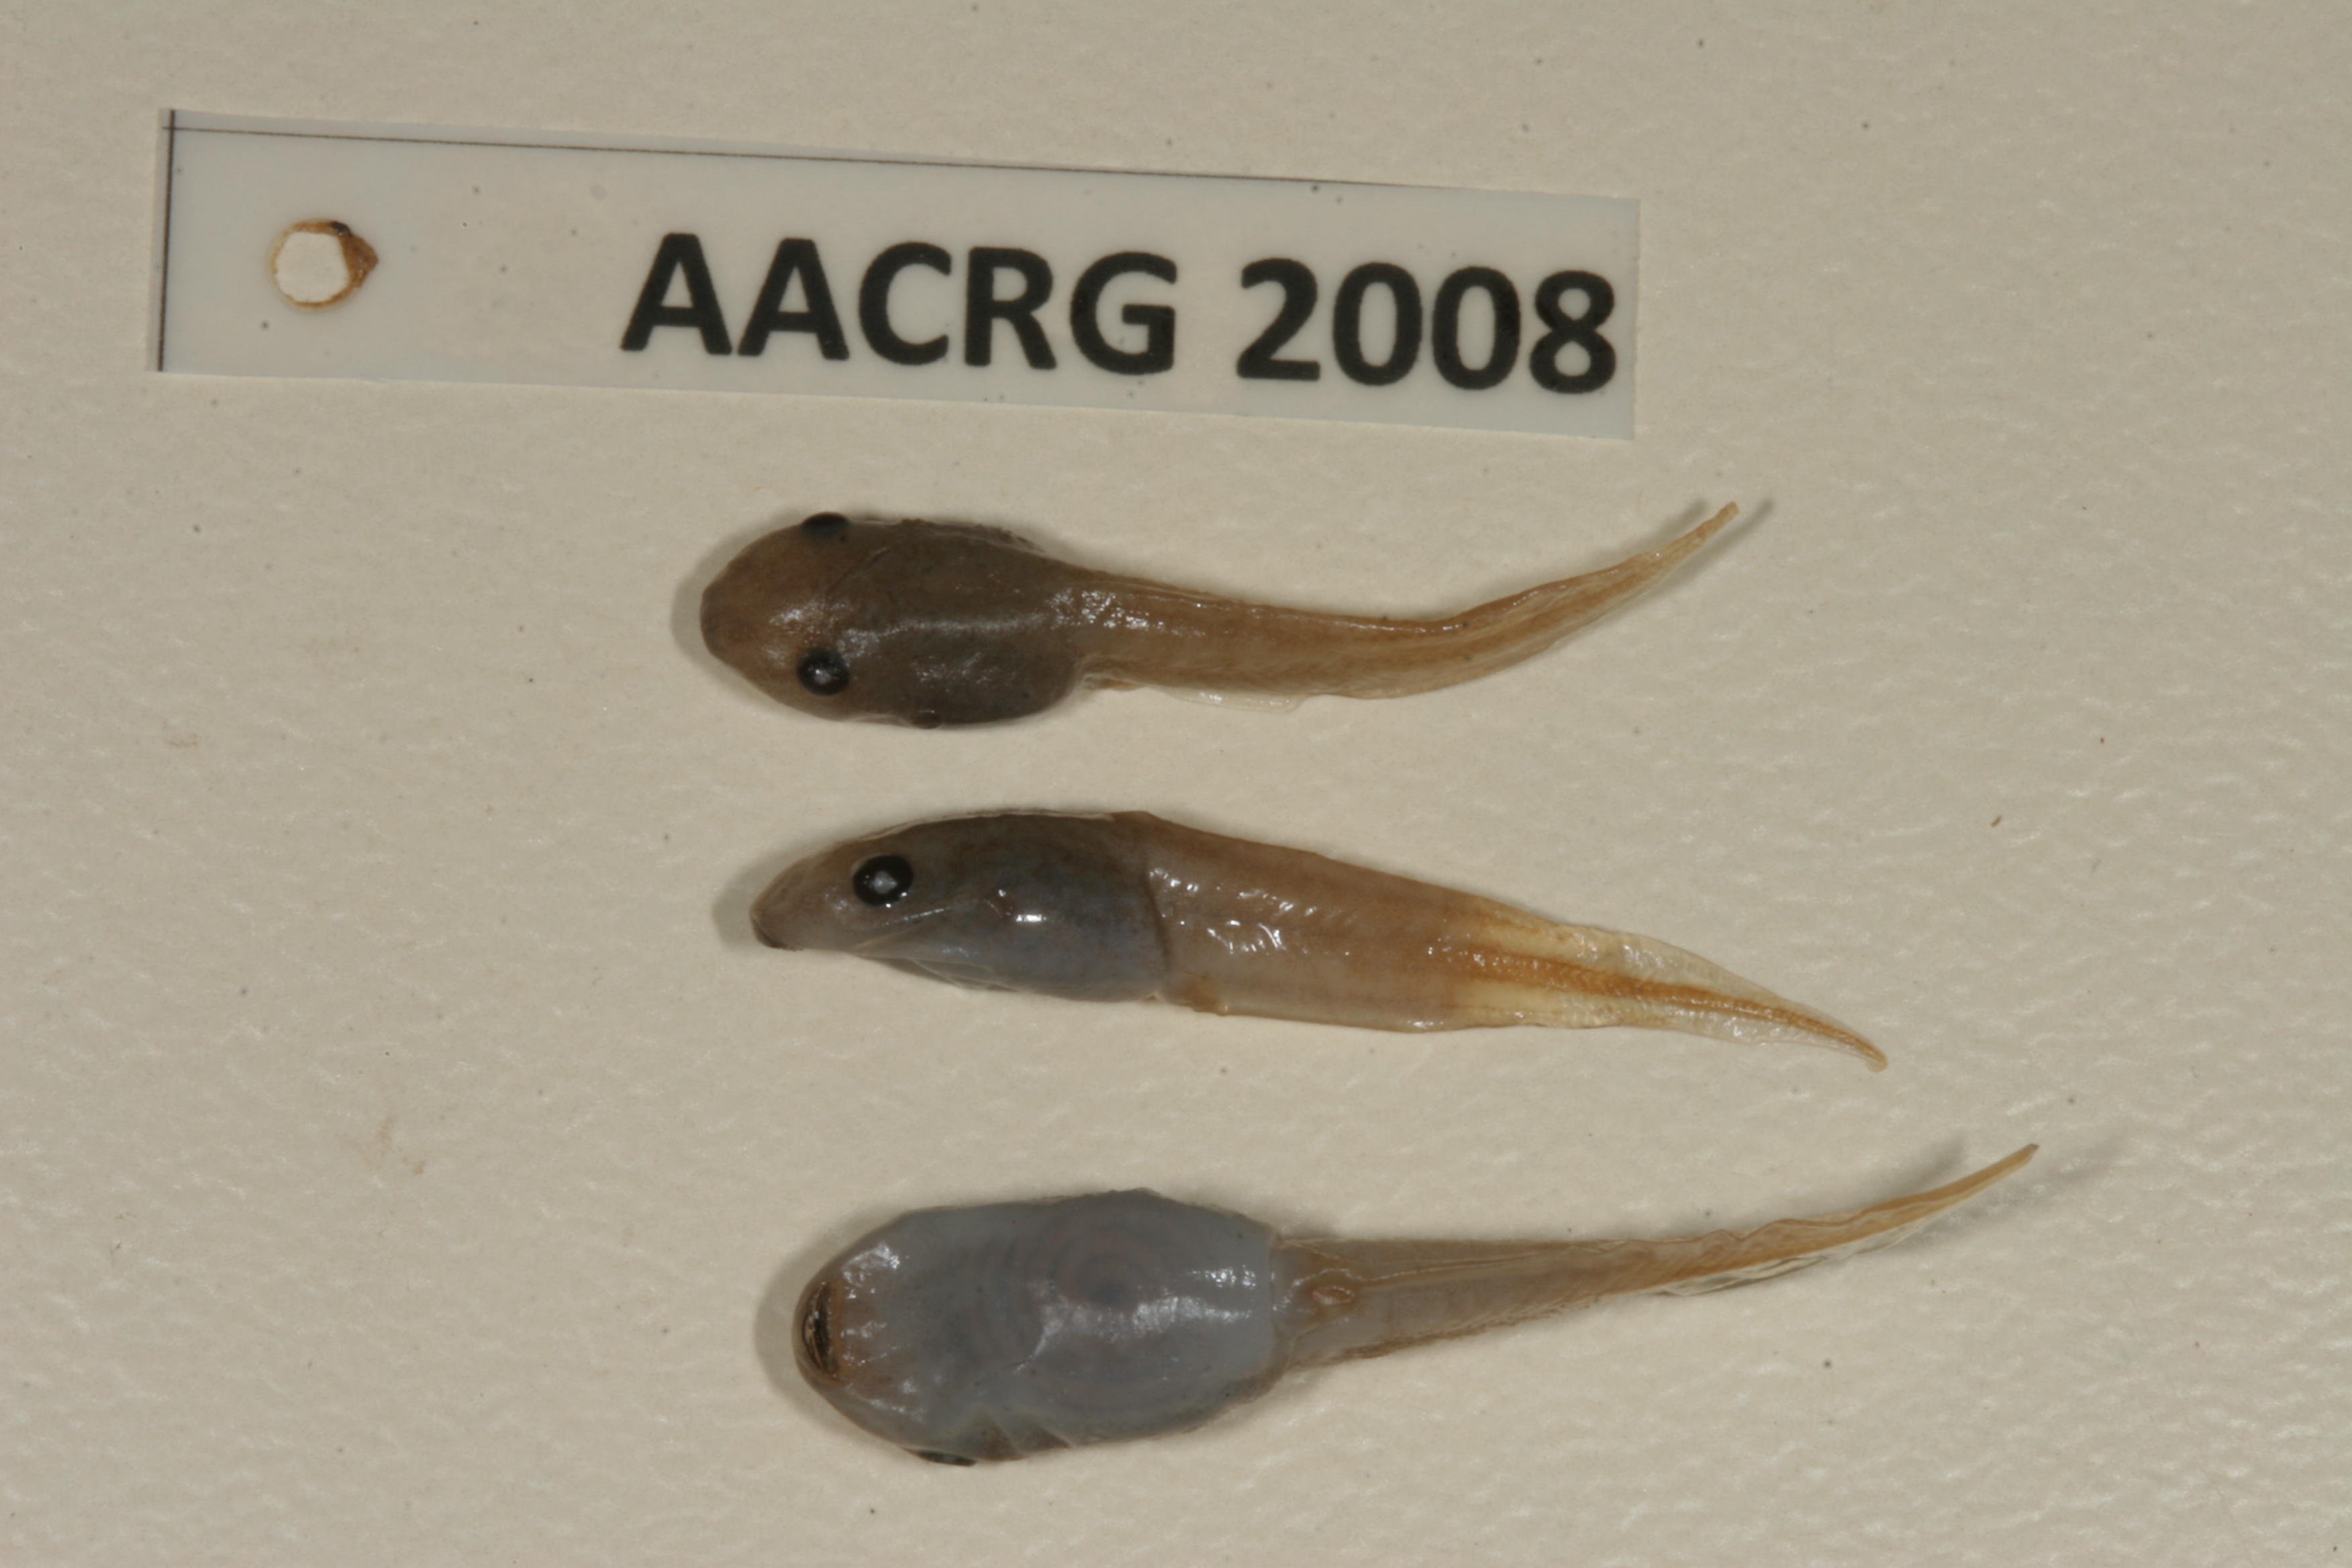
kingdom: Animalia
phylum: Chordata
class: Amphibia
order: Anura
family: Hemisotidae
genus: Hemisus
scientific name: Hemisus marmoratus
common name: Mottled shovel-nosed frog
